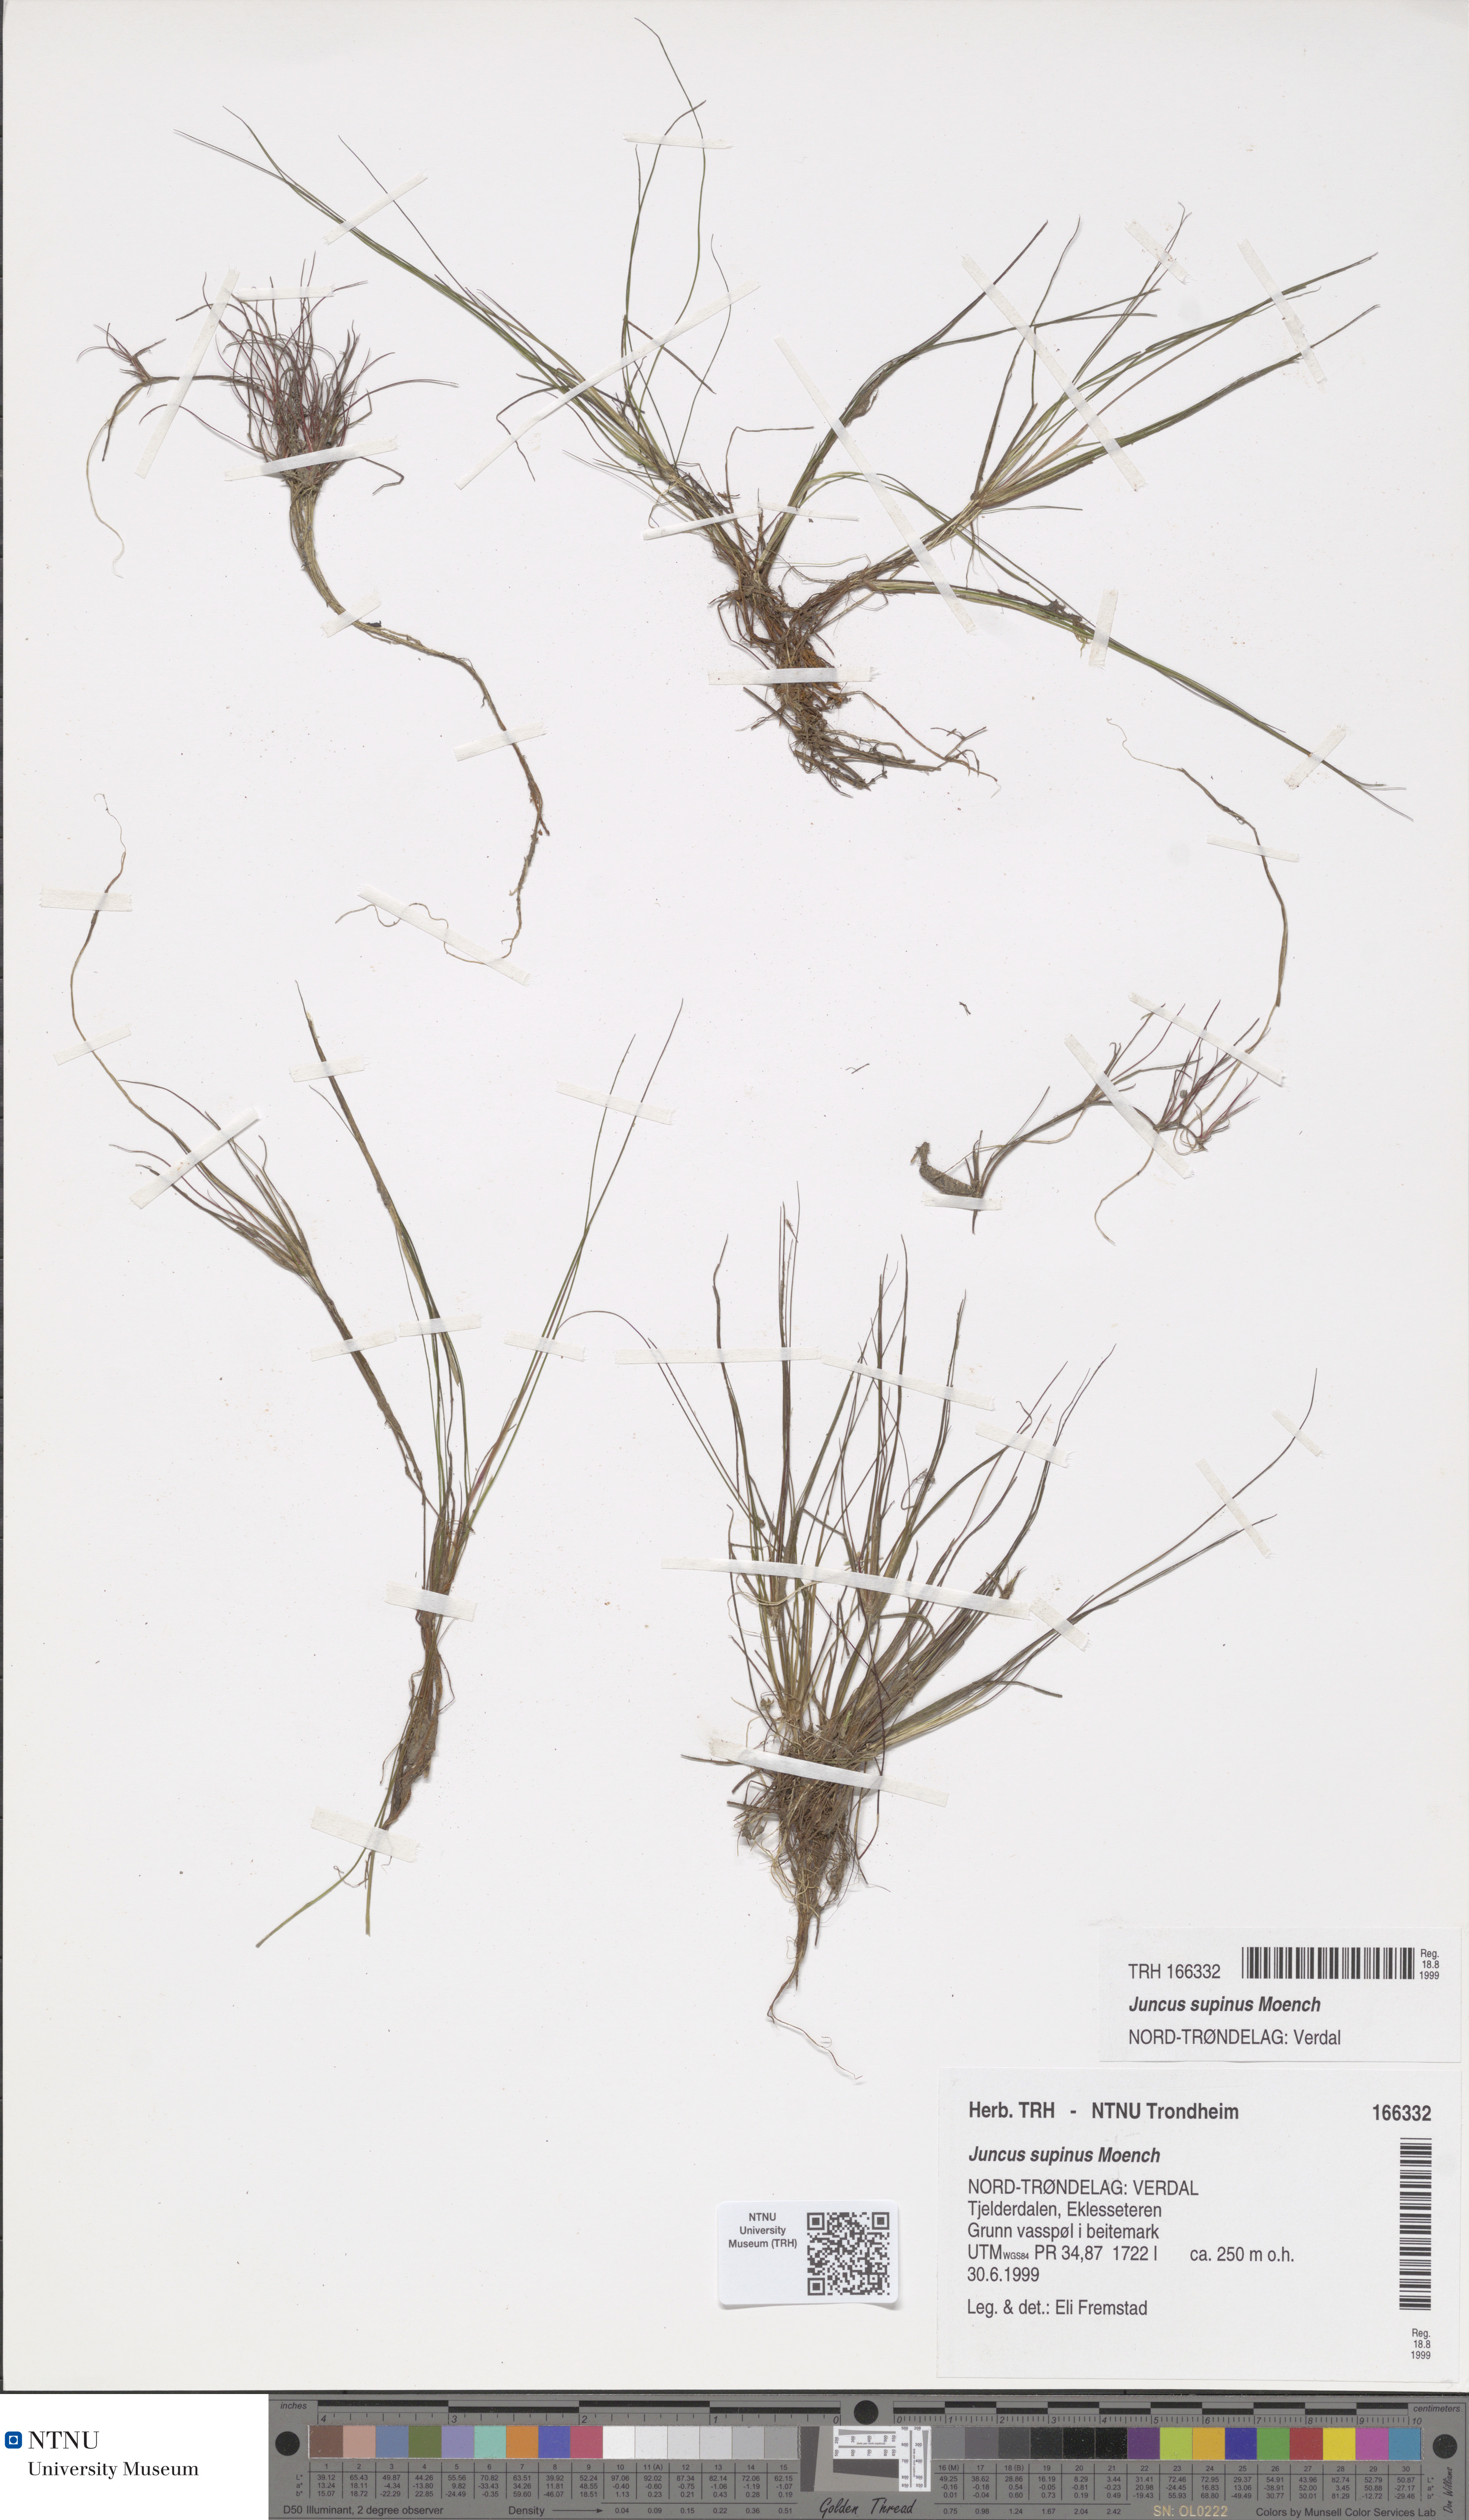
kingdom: Plantae
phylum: Tracheophyta
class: Liliopsida
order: Poales
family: Juncaceae
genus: Juncus
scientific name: Juncus bulbosus
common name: Bulbous rush
